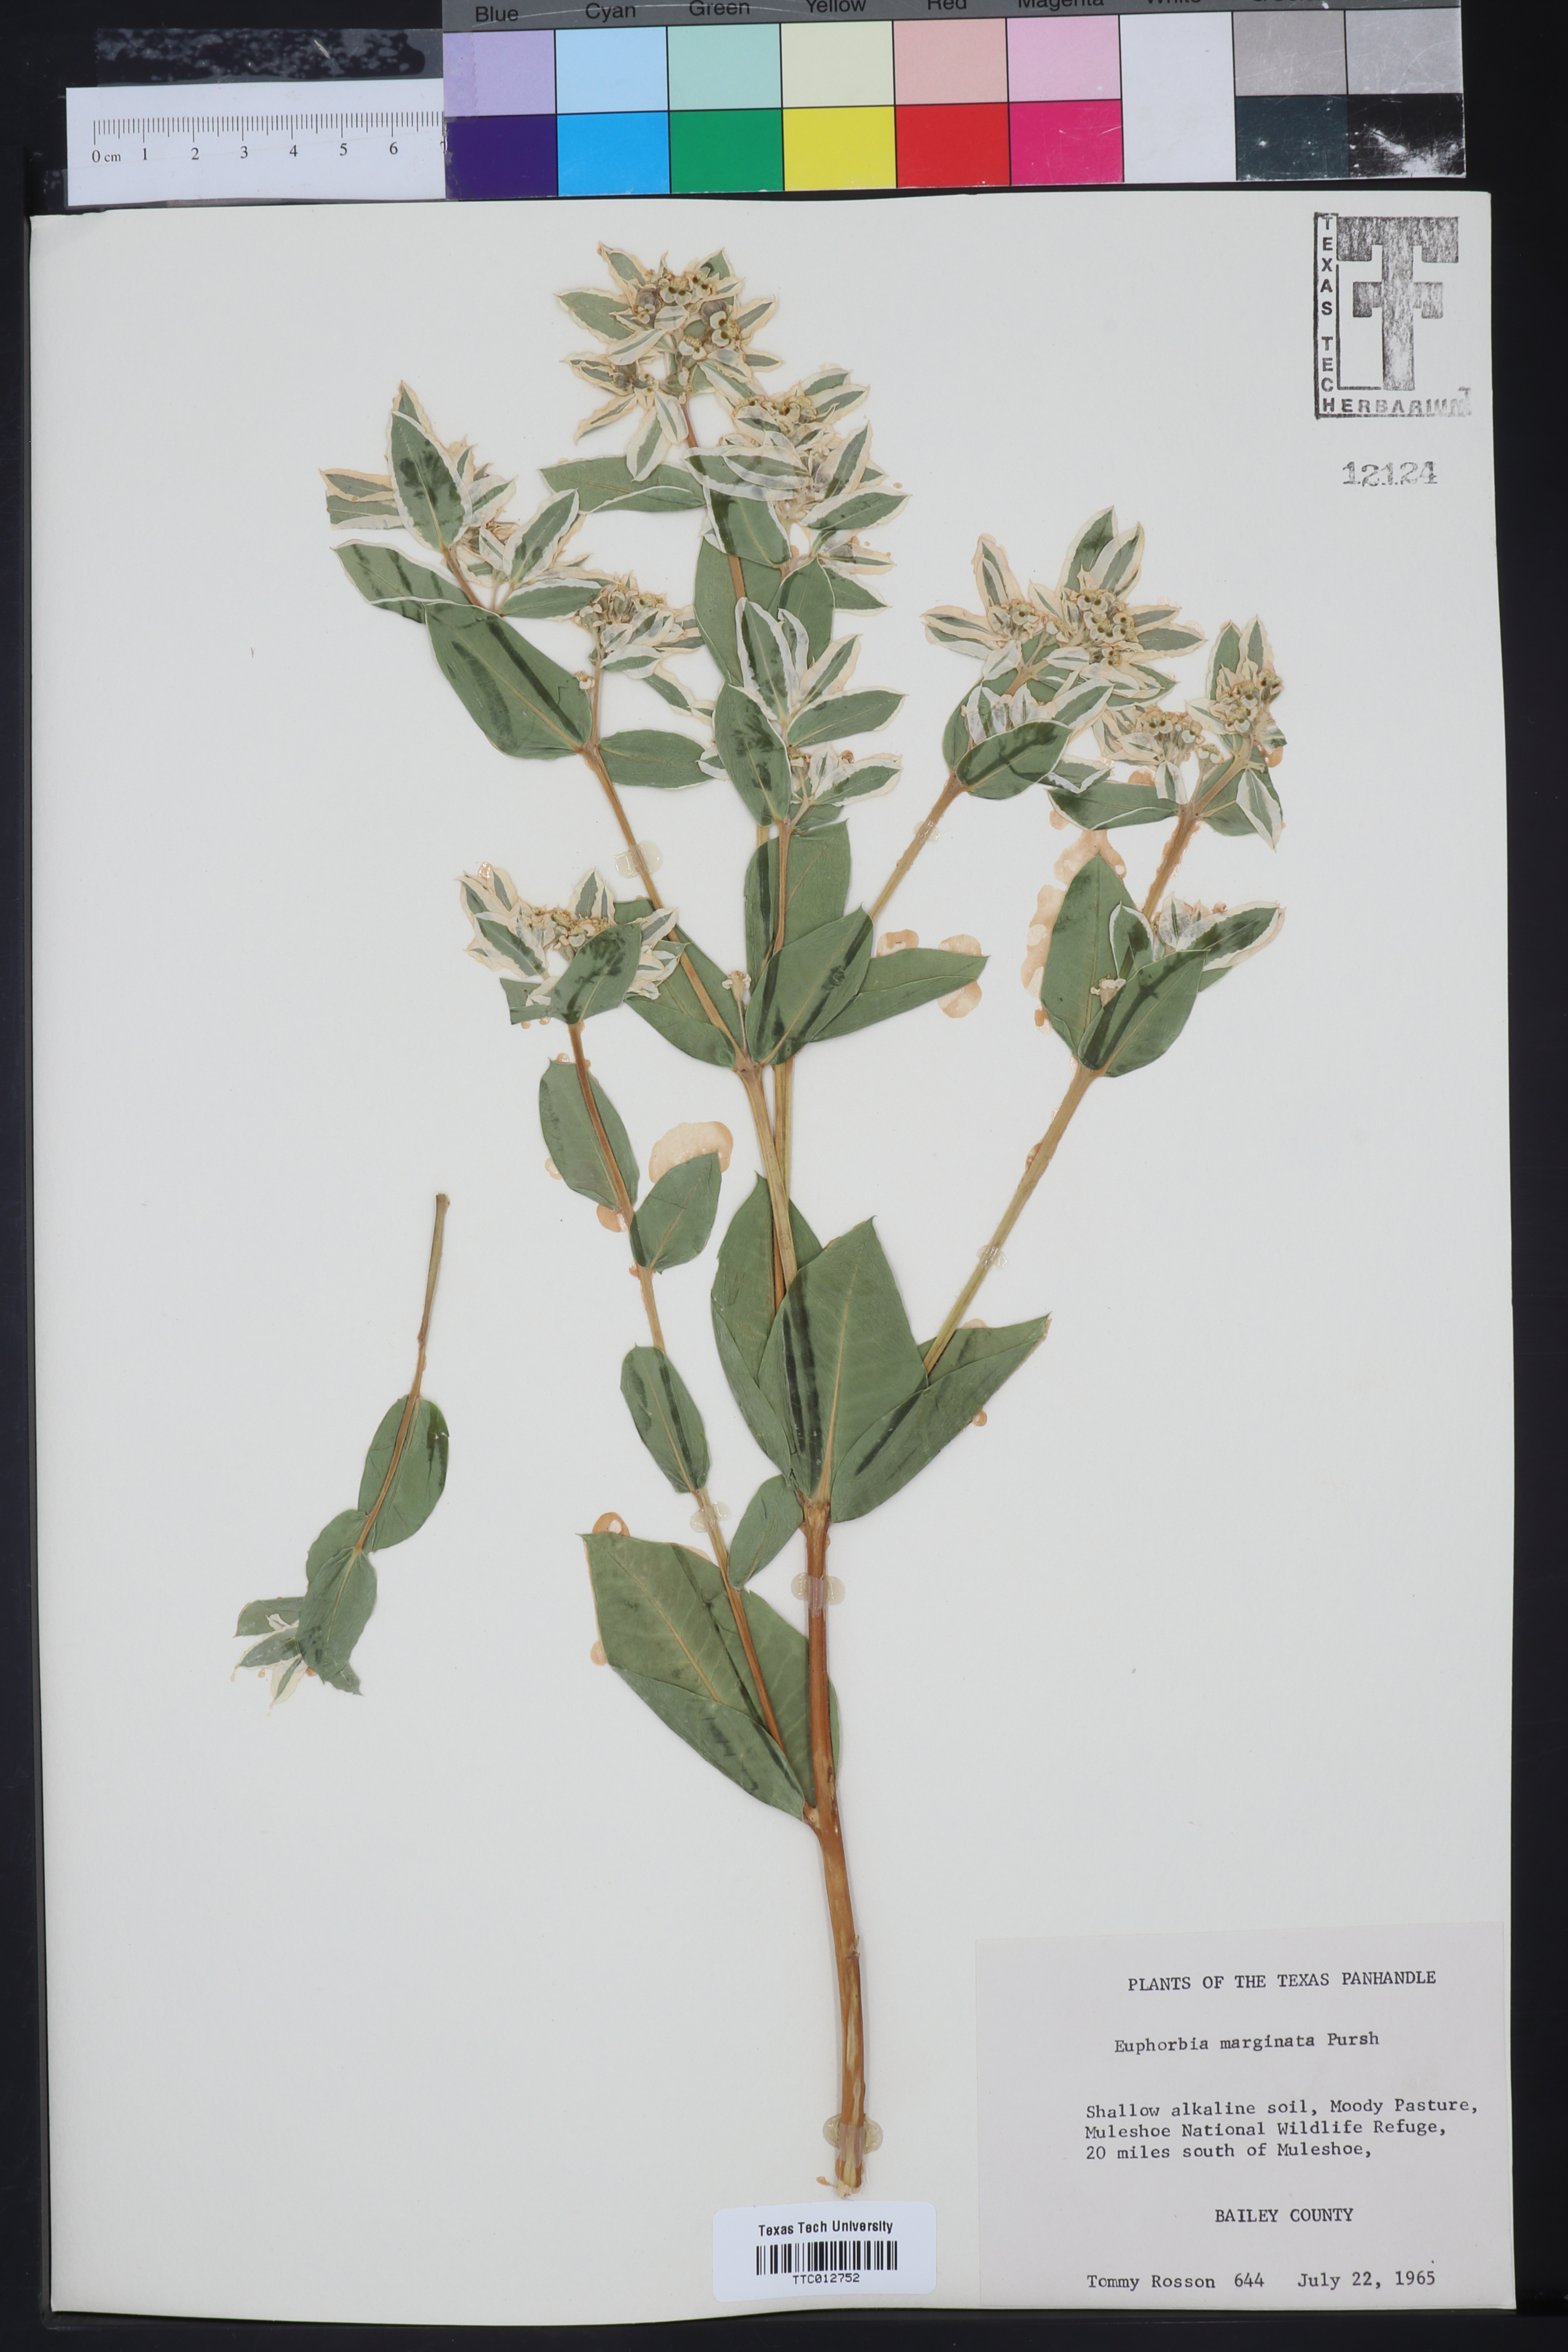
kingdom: Plantae
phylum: Tracheophyta
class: Magnoliopsida
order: Malpighiales
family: Euphorbiaceae
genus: Euphorbia
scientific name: Euphorbia marginata
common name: Ghostweed
